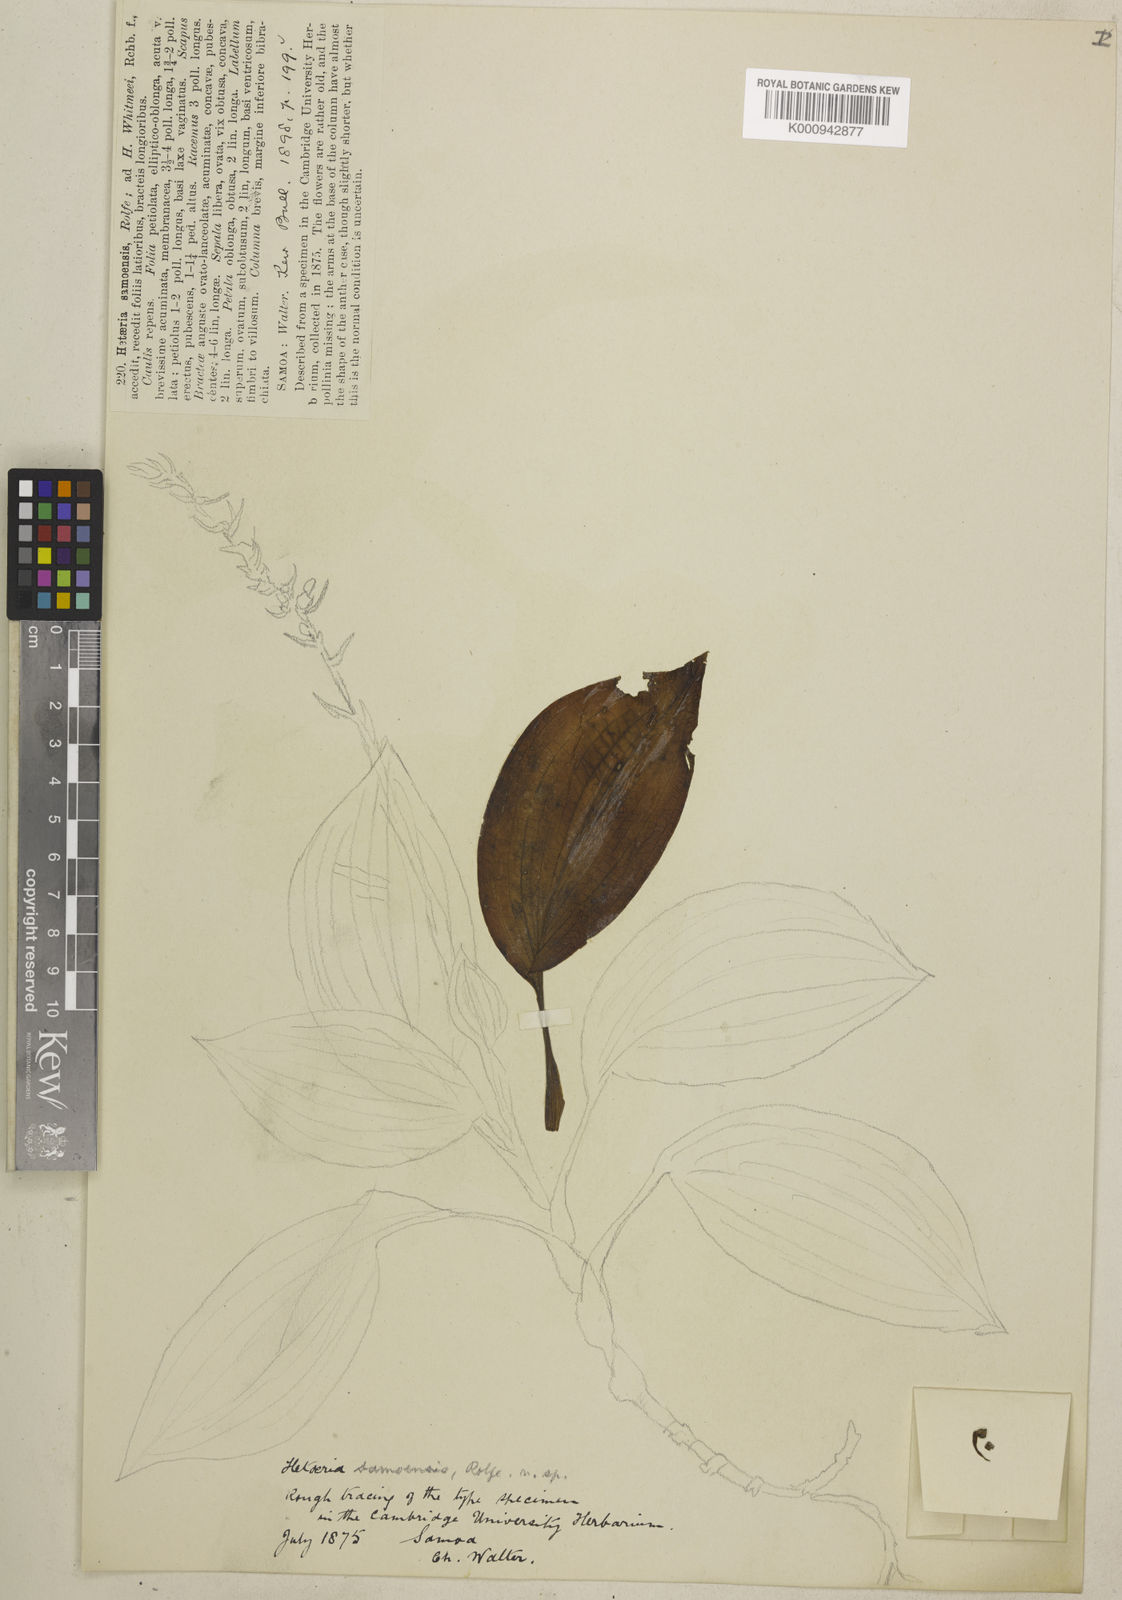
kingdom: Plantae
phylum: Tracheophyta
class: Liliopsida
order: Asparagales
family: Orchidaceae
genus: Hetaeria
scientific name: Hetaeria oblongifolia
